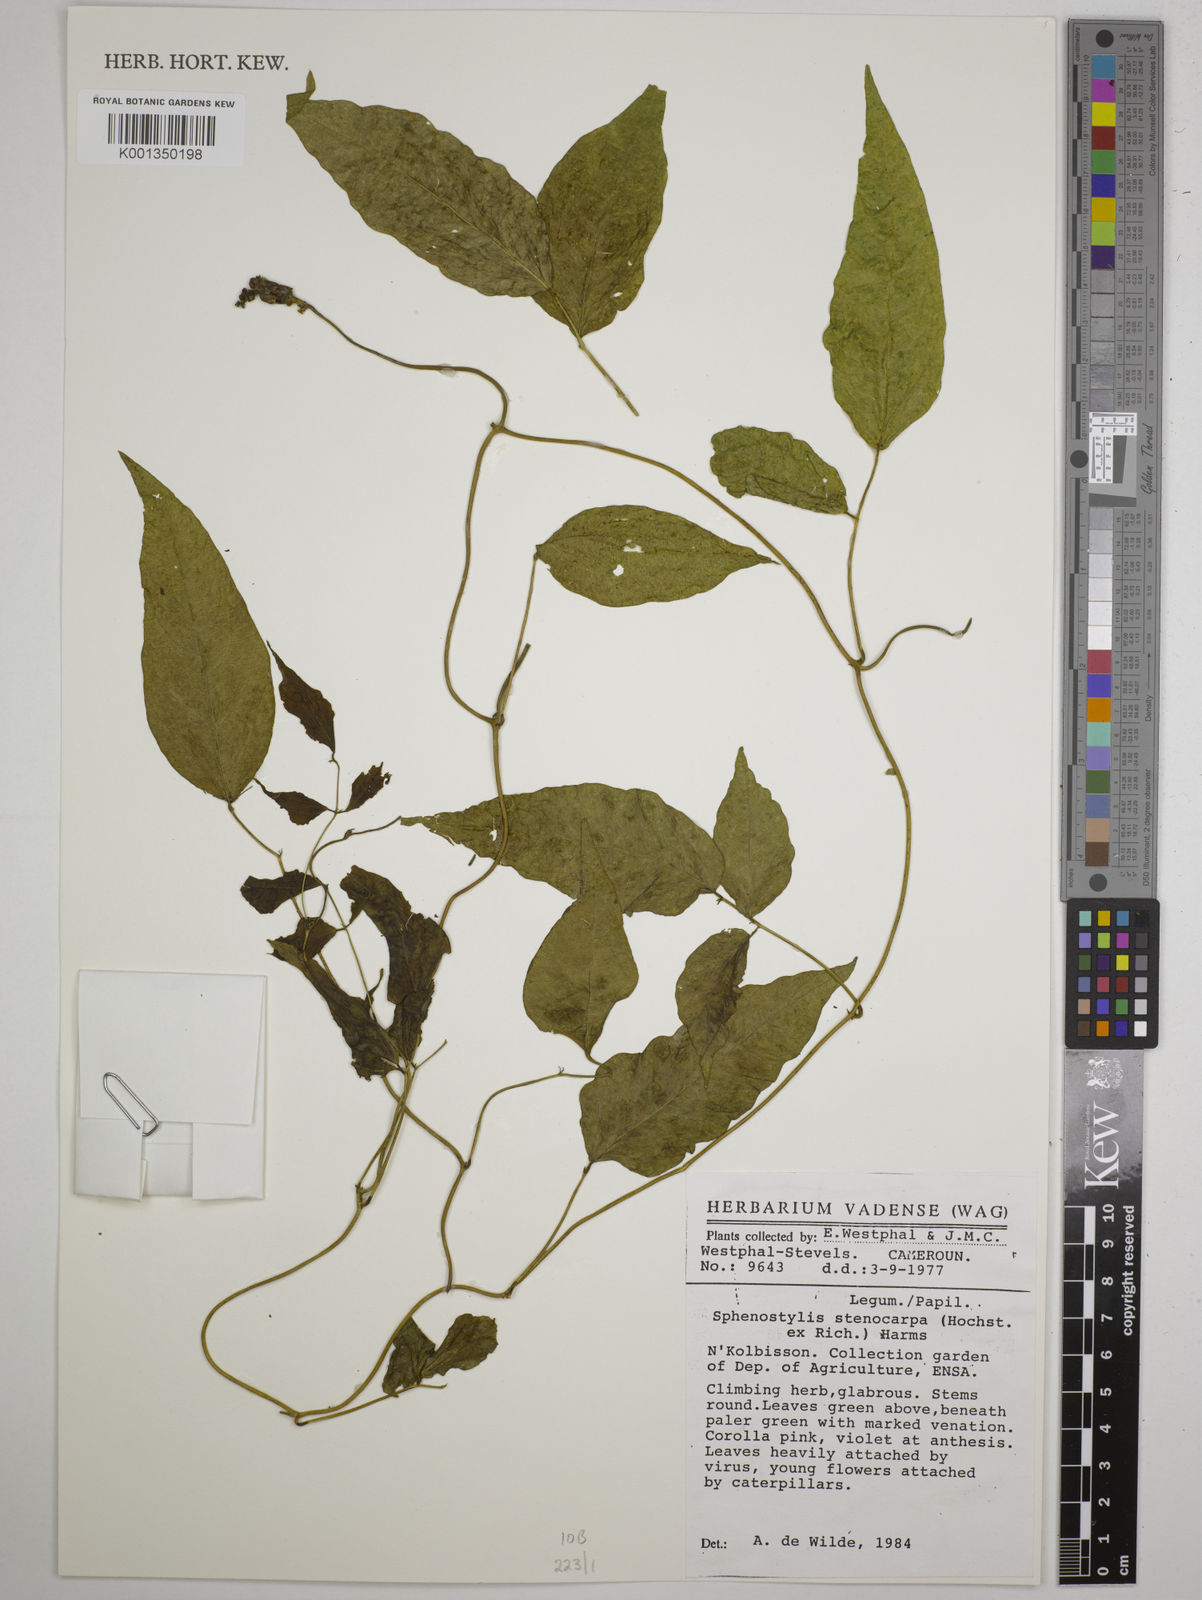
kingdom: Plantae
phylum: Tracheophyta
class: Magnoliopsida
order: Fabales
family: Fabaceae
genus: Sphenostylis
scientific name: Sphenostylis stenocarpa
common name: Yam-pea
